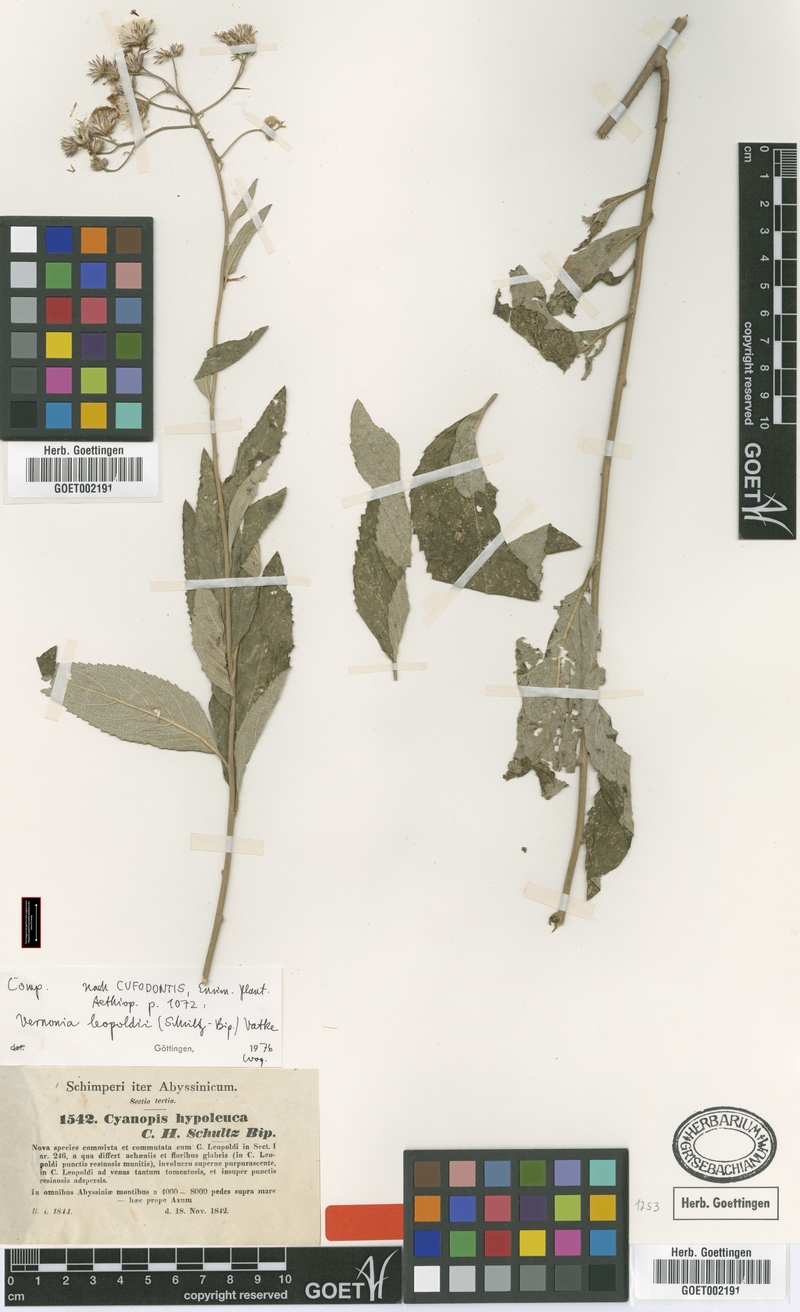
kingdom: Plantae
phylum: Tracheophyta
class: Magnoliopsida
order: Asterales
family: Asteraceae
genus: Orbivestus
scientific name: Orbivestus leopoldii
